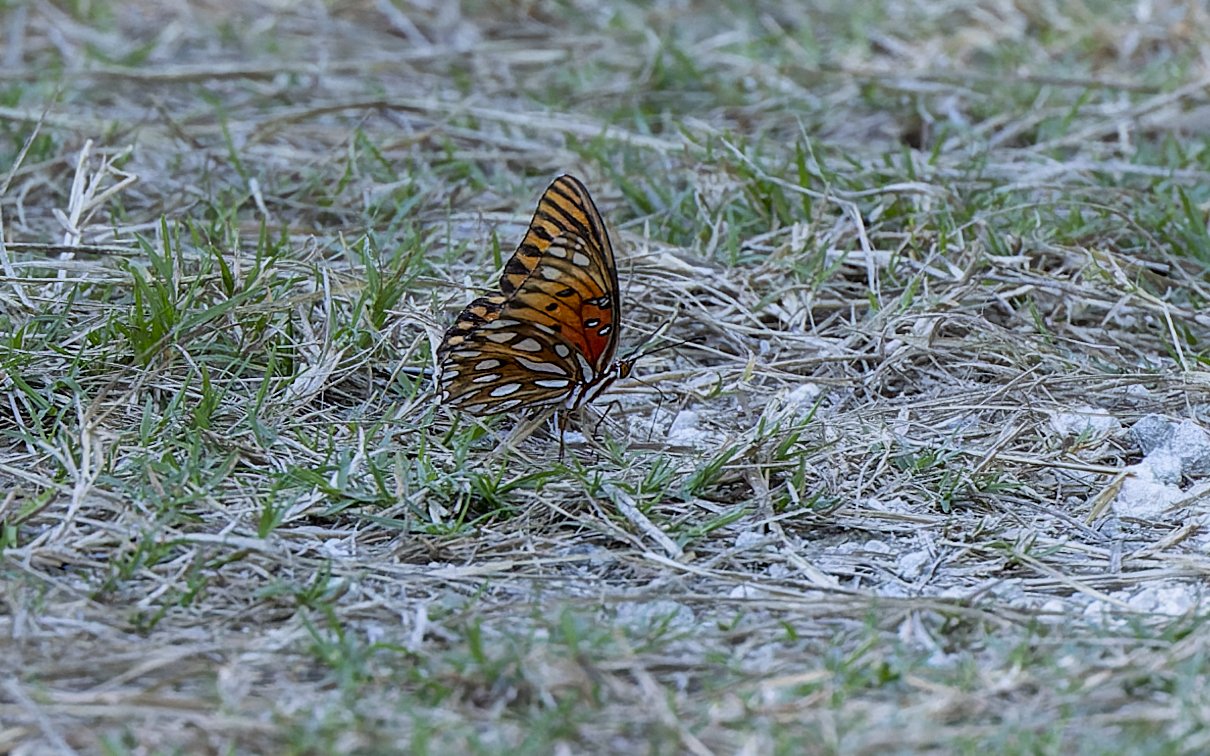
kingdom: Animalia
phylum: Arthropoda
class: Insecta
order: Lepidoptera
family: Nymphalidae
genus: Dione
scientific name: Dione vanillae
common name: Gulf Fritillary
